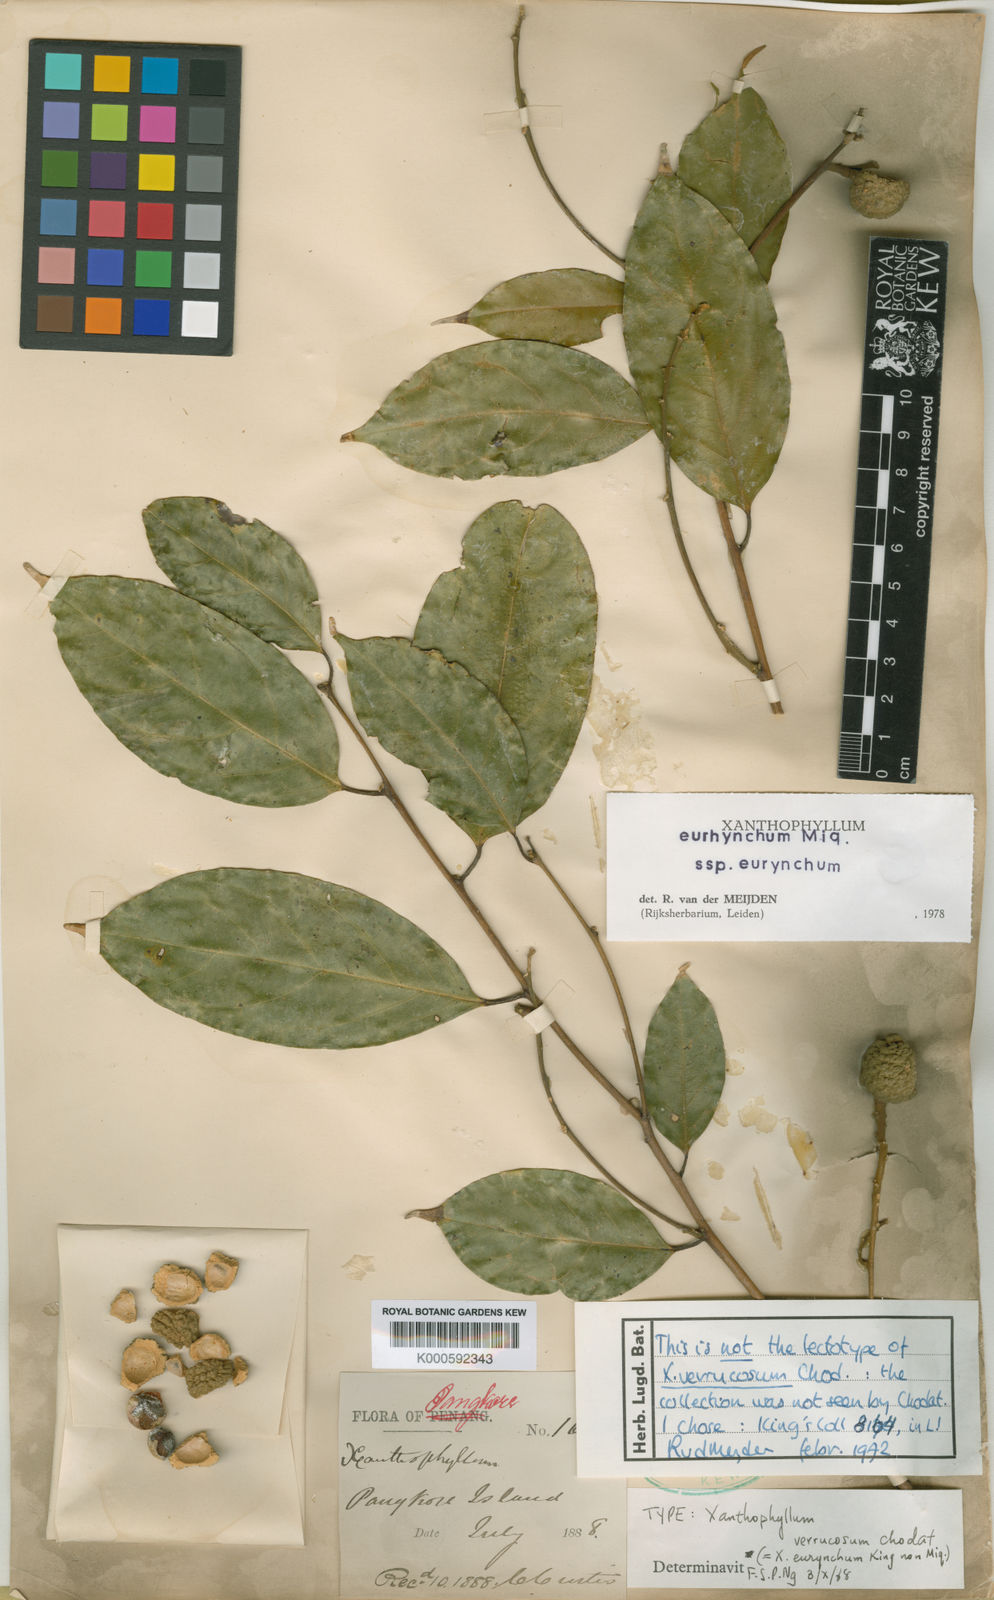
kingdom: Plantae
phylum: Tracheophyta
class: Magnoliopsida
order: Fabales
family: Polygalaceae
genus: Xanthophyllum
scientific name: Xanthophyllum eurhynchum
